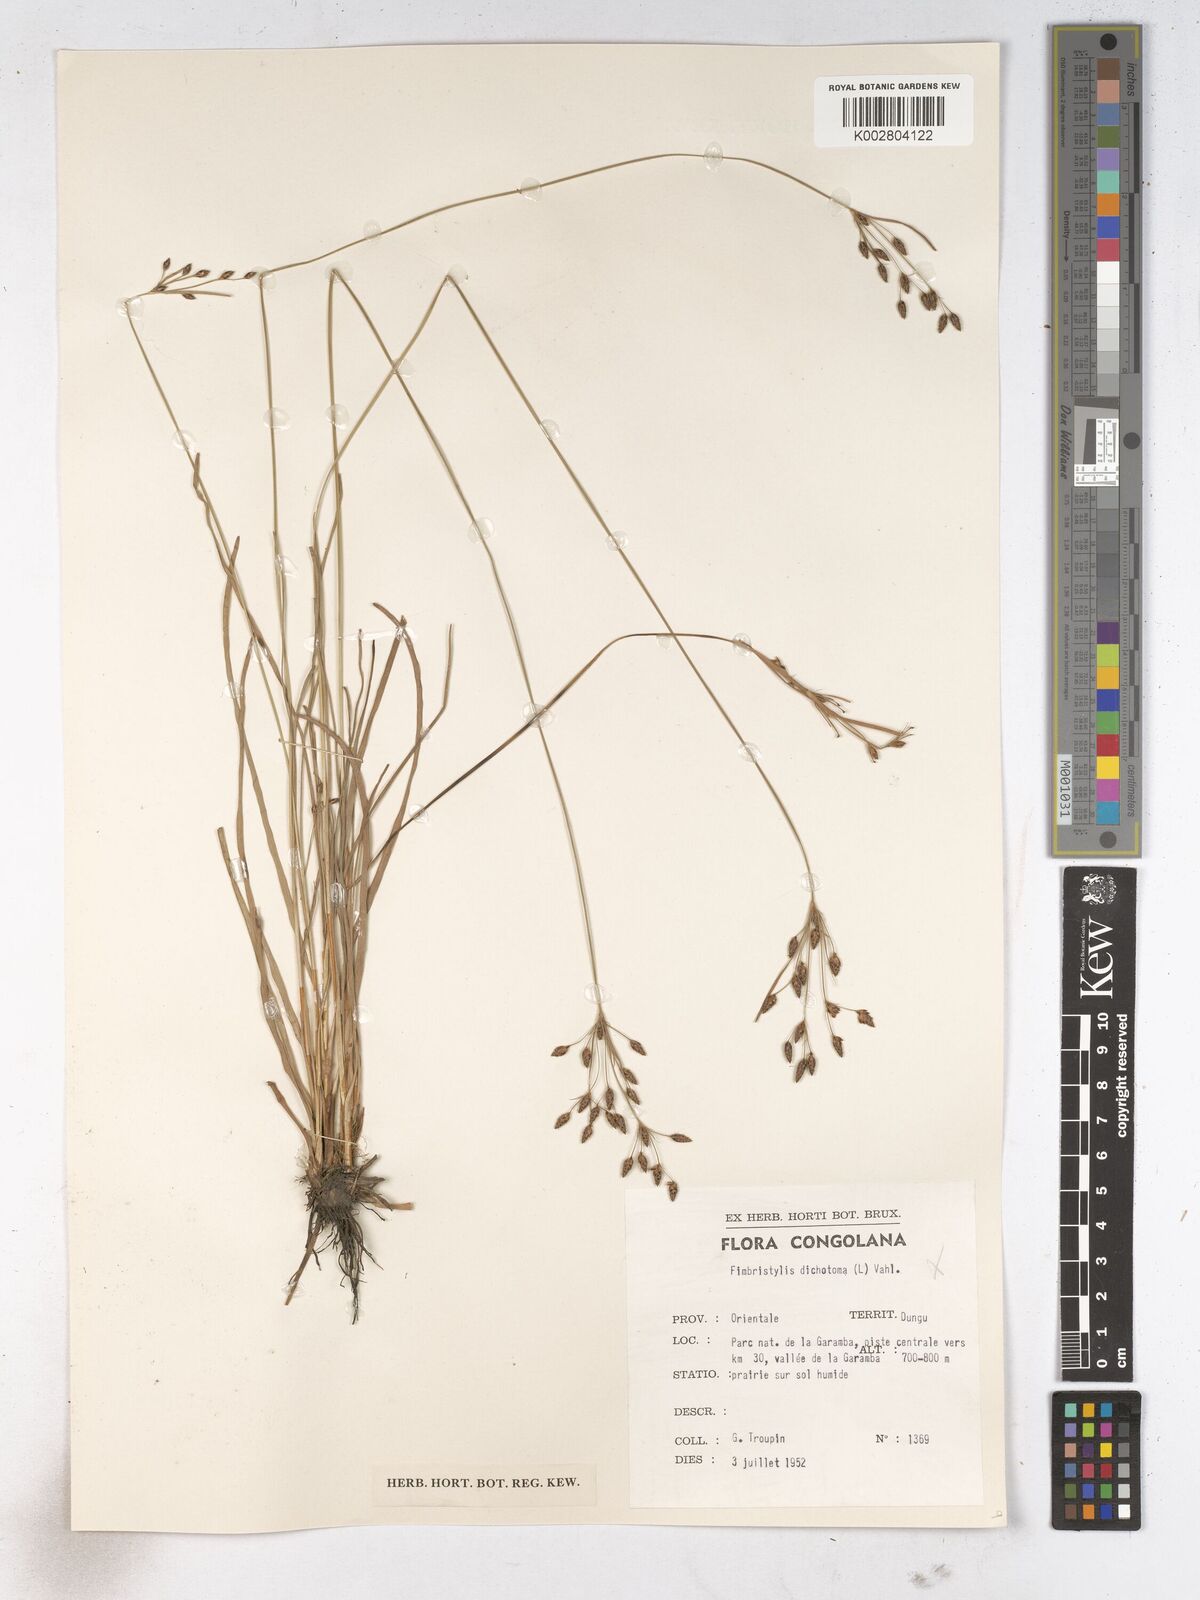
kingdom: Plantae
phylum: Tracheophyta
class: Liliopsida
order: Poales
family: Cyperaceae
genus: Fimbristylis
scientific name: Fimbristylis dichotoma
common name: Forked fimbry
